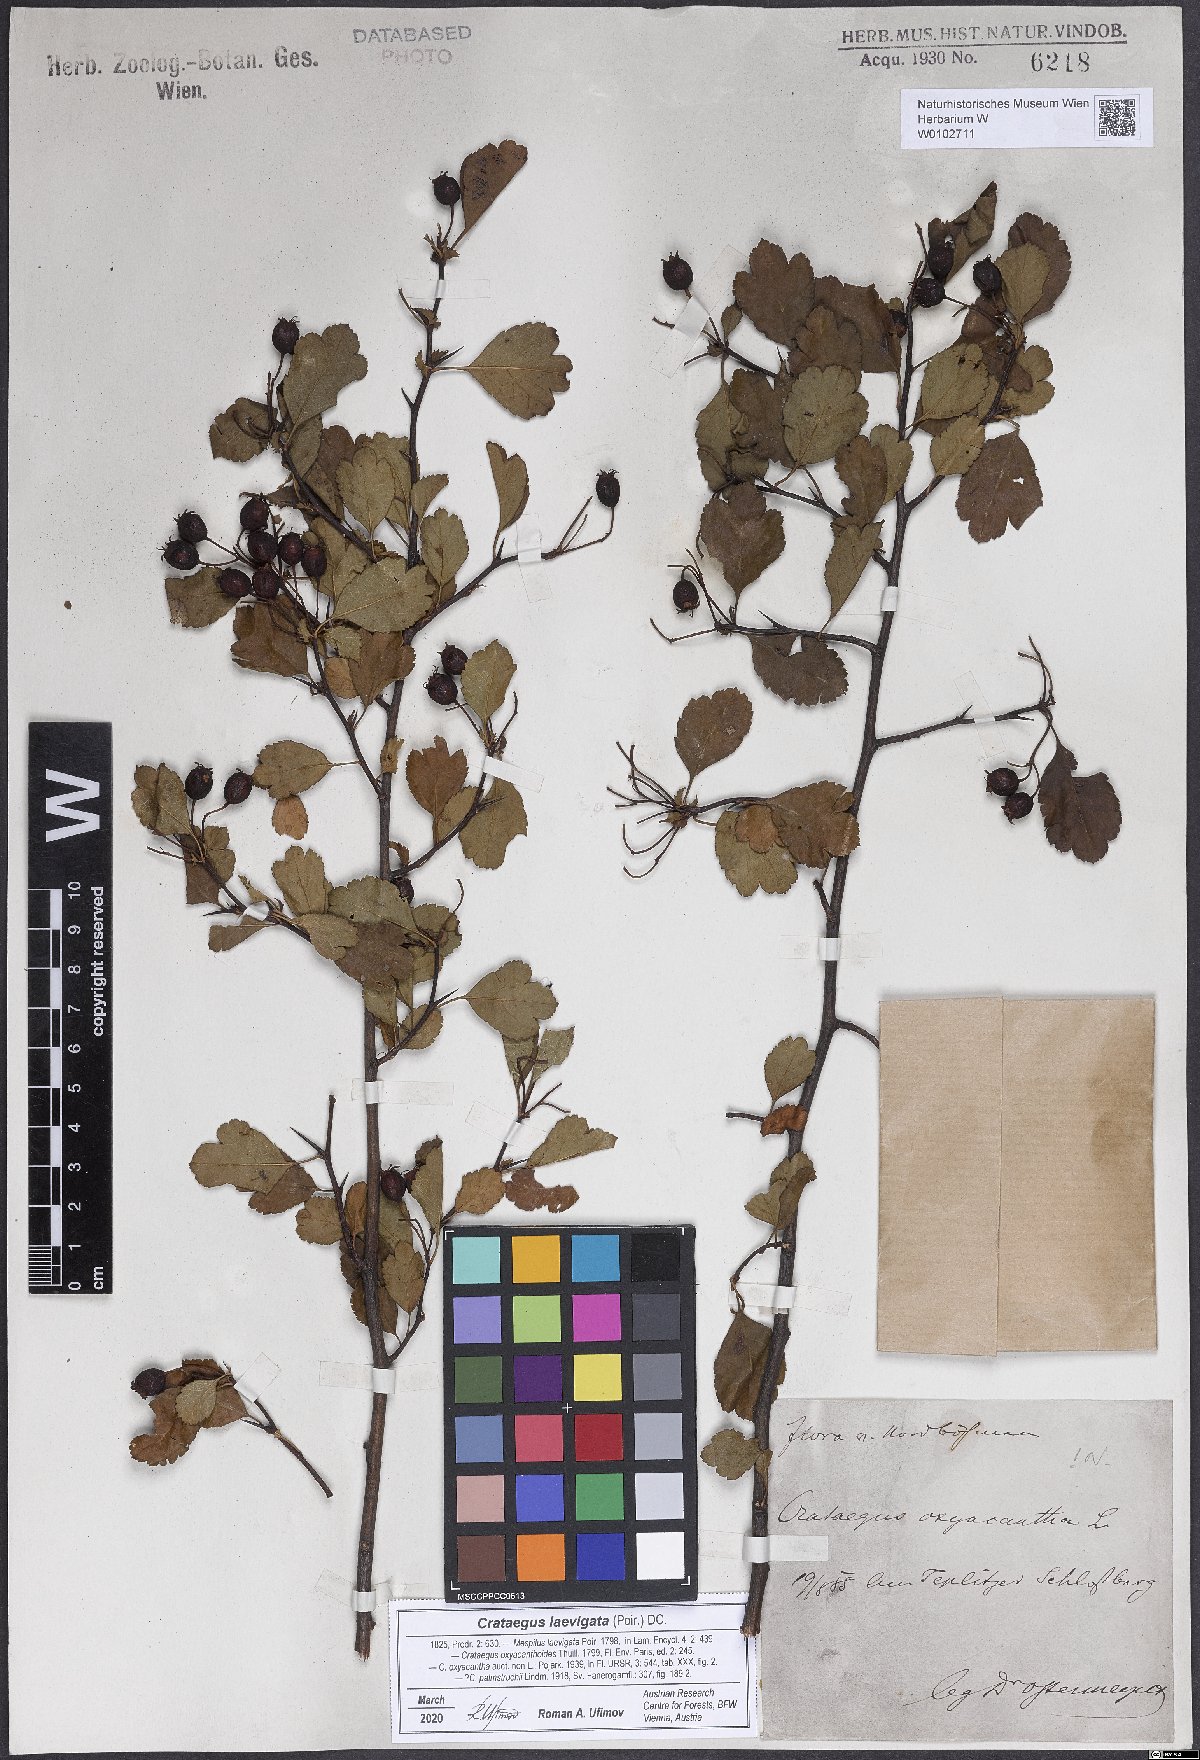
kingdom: Plantae
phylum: Tracheophyta
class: Magnoliopsida
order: Rosales
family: Rosaceae
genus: Crataegus
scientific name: Crataegus laevigata
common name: Midland hawthorn
